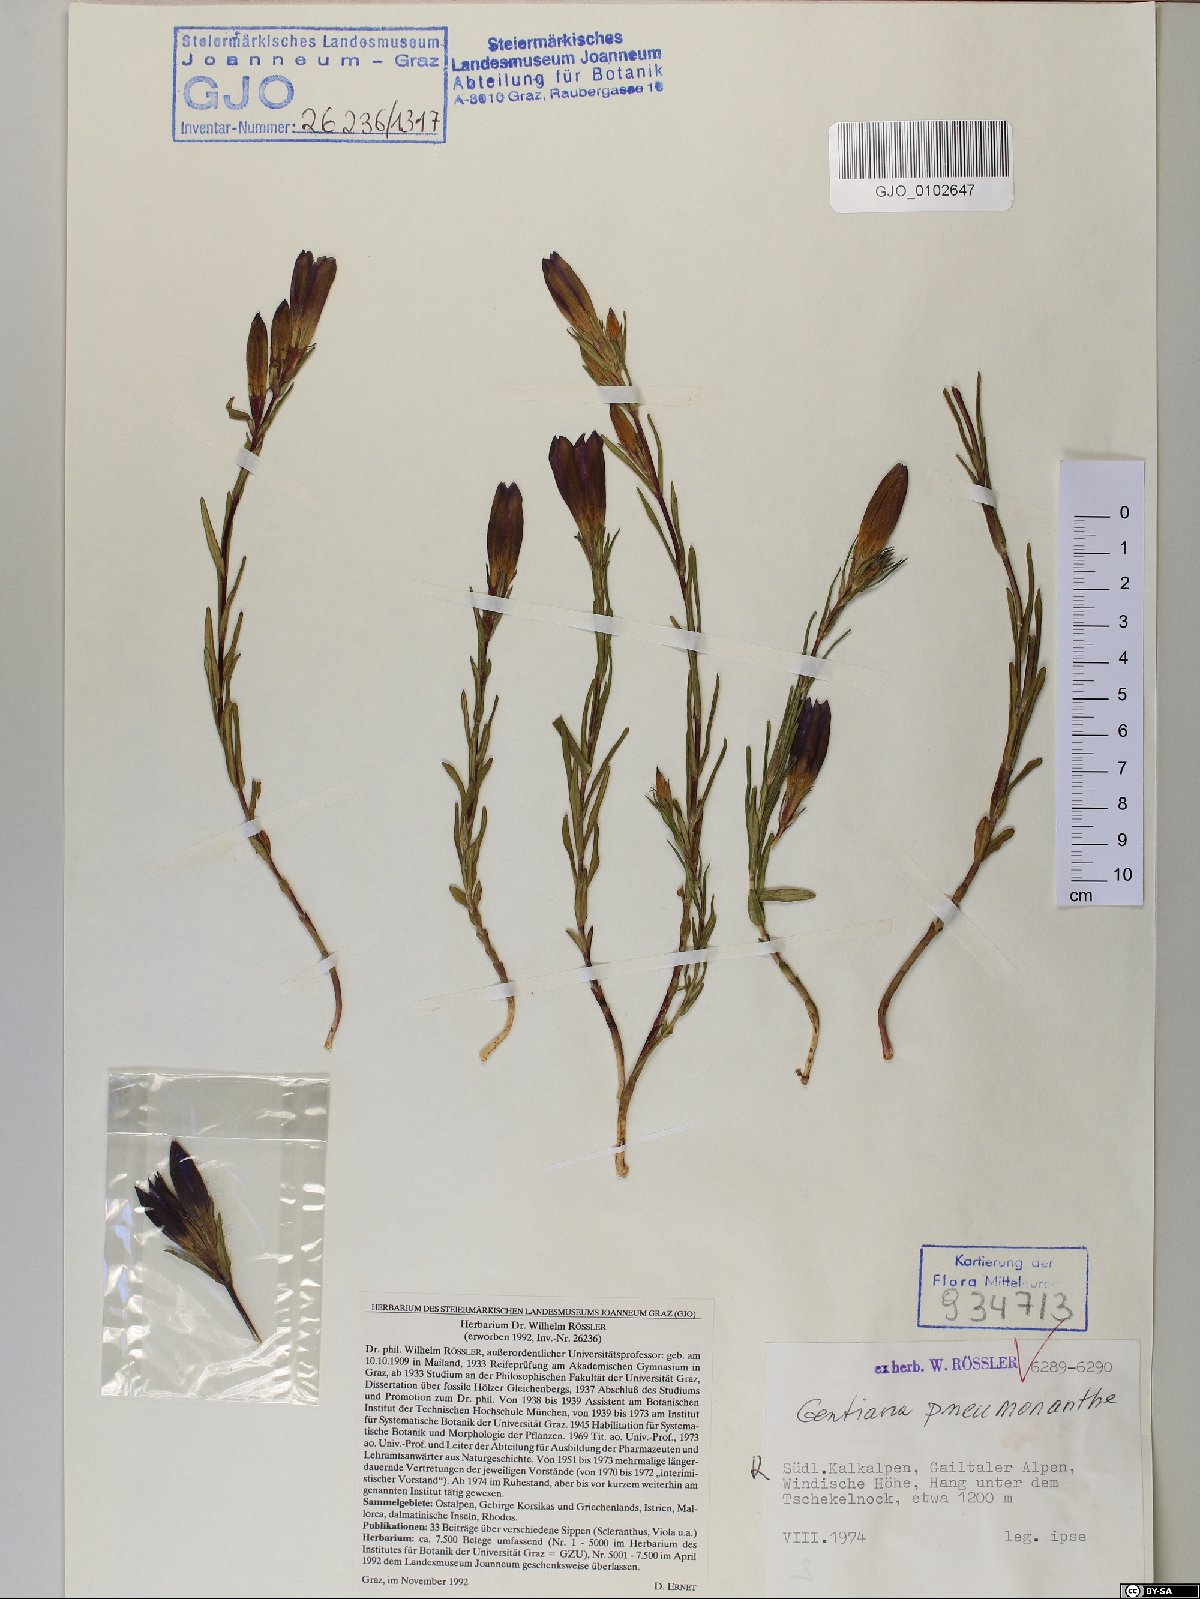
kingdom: Plantae
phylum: Tracheophyta
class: Magnoliopsida
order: Gentianales
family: Gentianaceae
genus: Gentiana
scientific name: Gentiana pneumonanthe
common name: Marsh gentian
